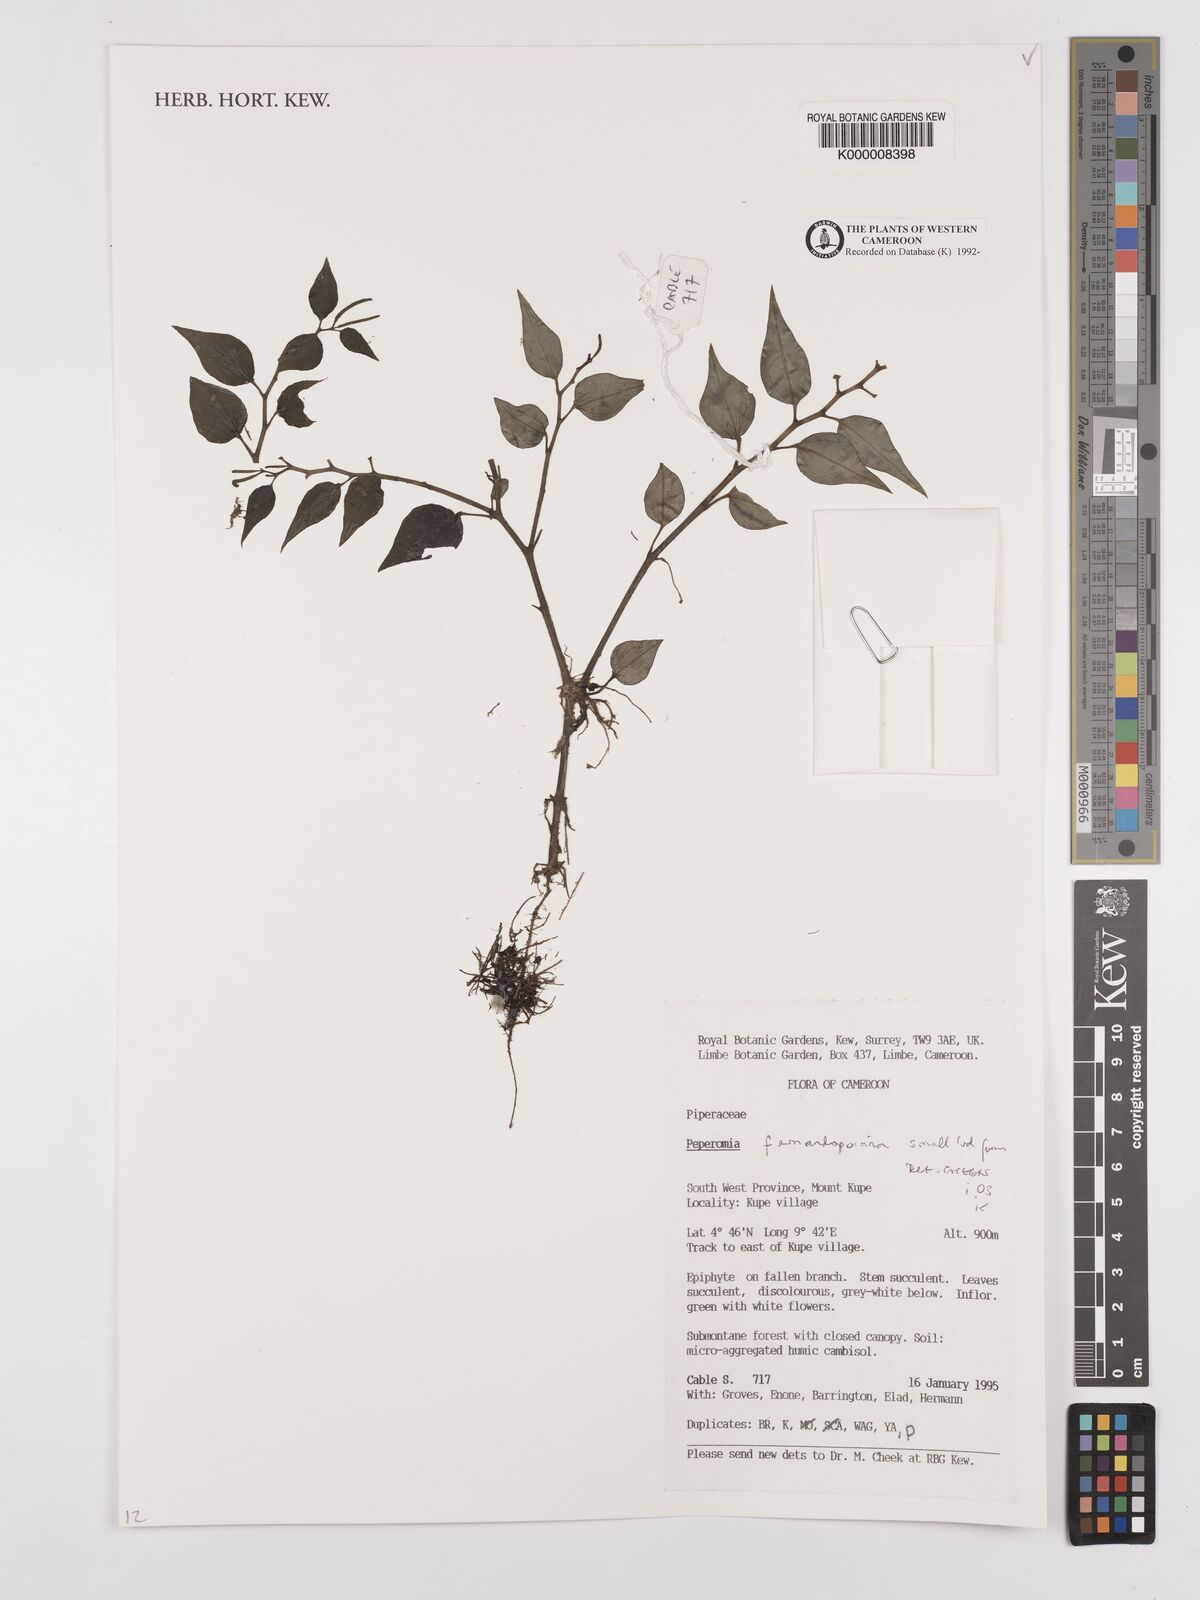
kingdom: Plantae
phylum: Tracheophyta
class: Magnoliopsida
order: Piperales
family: Piperaceae
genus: Peperomia
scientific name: Peperomia fernandopoiana
